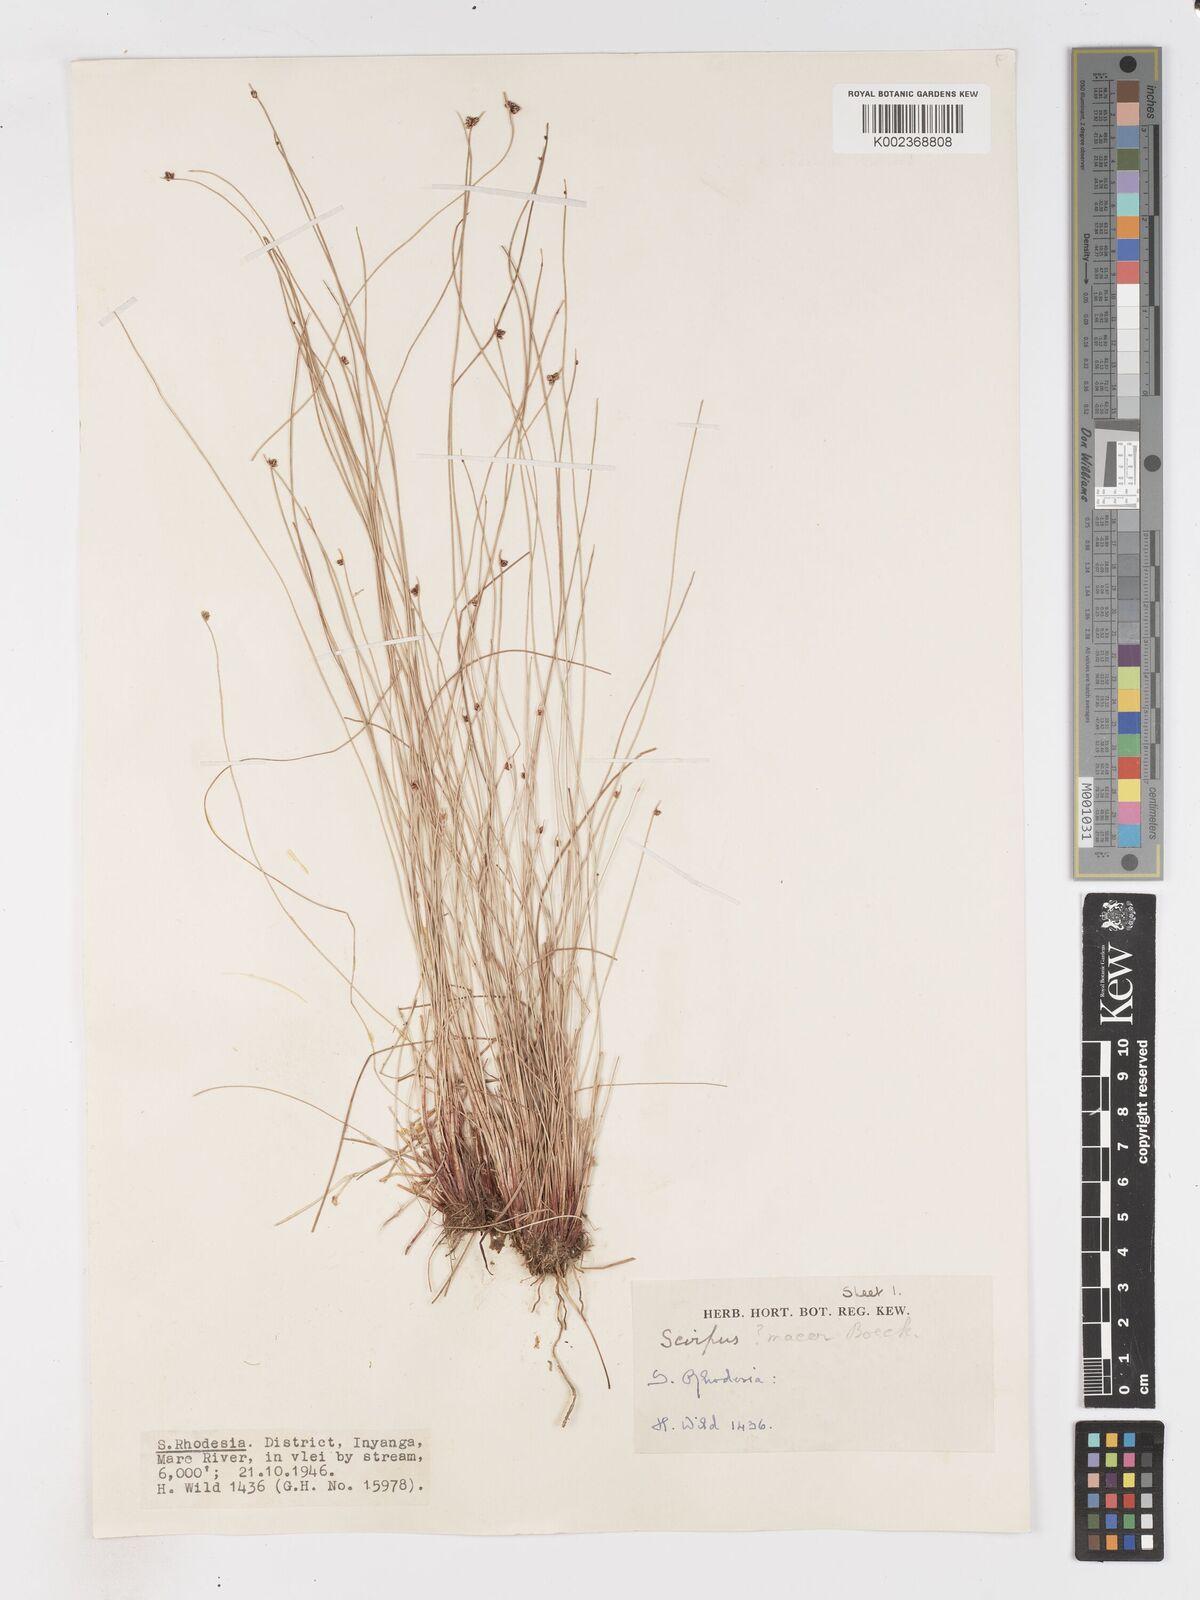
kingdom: Plantae
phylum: Tracheophyta
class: Liliopsida
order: Poales
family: Cyperaceae
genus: Isolepis
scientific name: Isolepis costata
